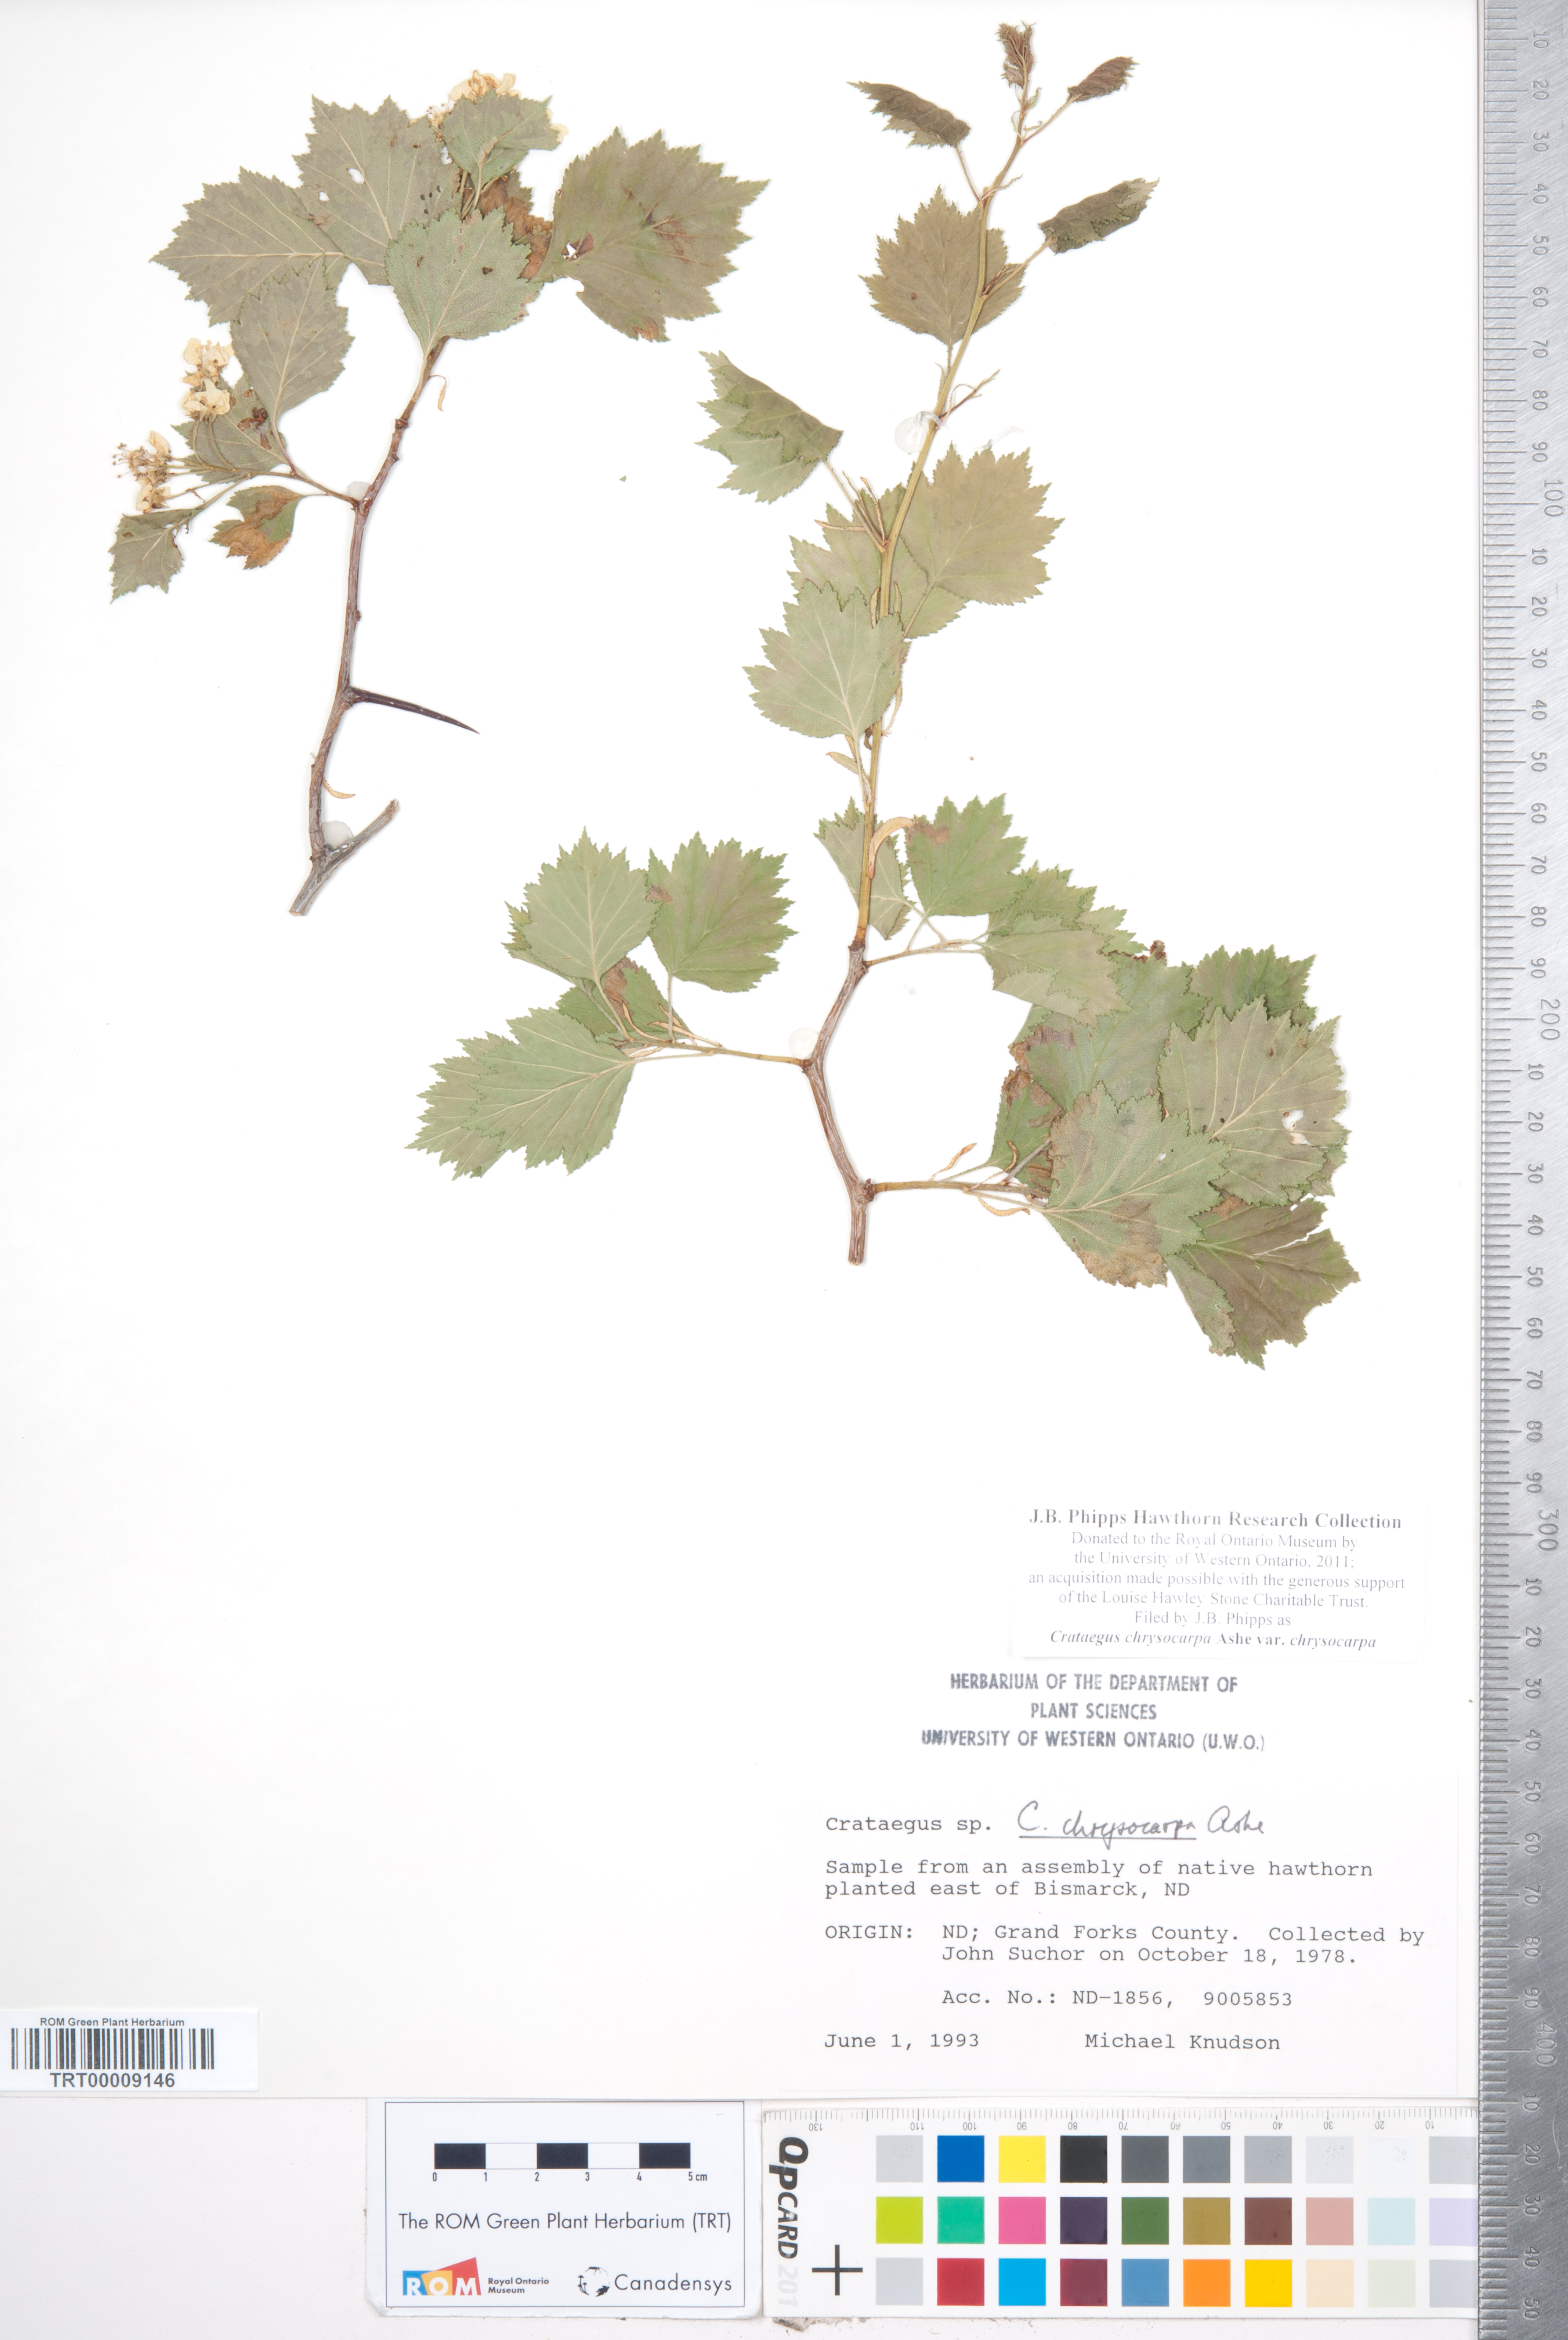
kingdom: Plantae
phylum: Tracheophyta
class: Magnoliopsida
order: Rosales
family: Rosaceae
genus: Crataegus
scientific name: Crataegus chrysocarpa
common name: Fire-berry hawthorn
